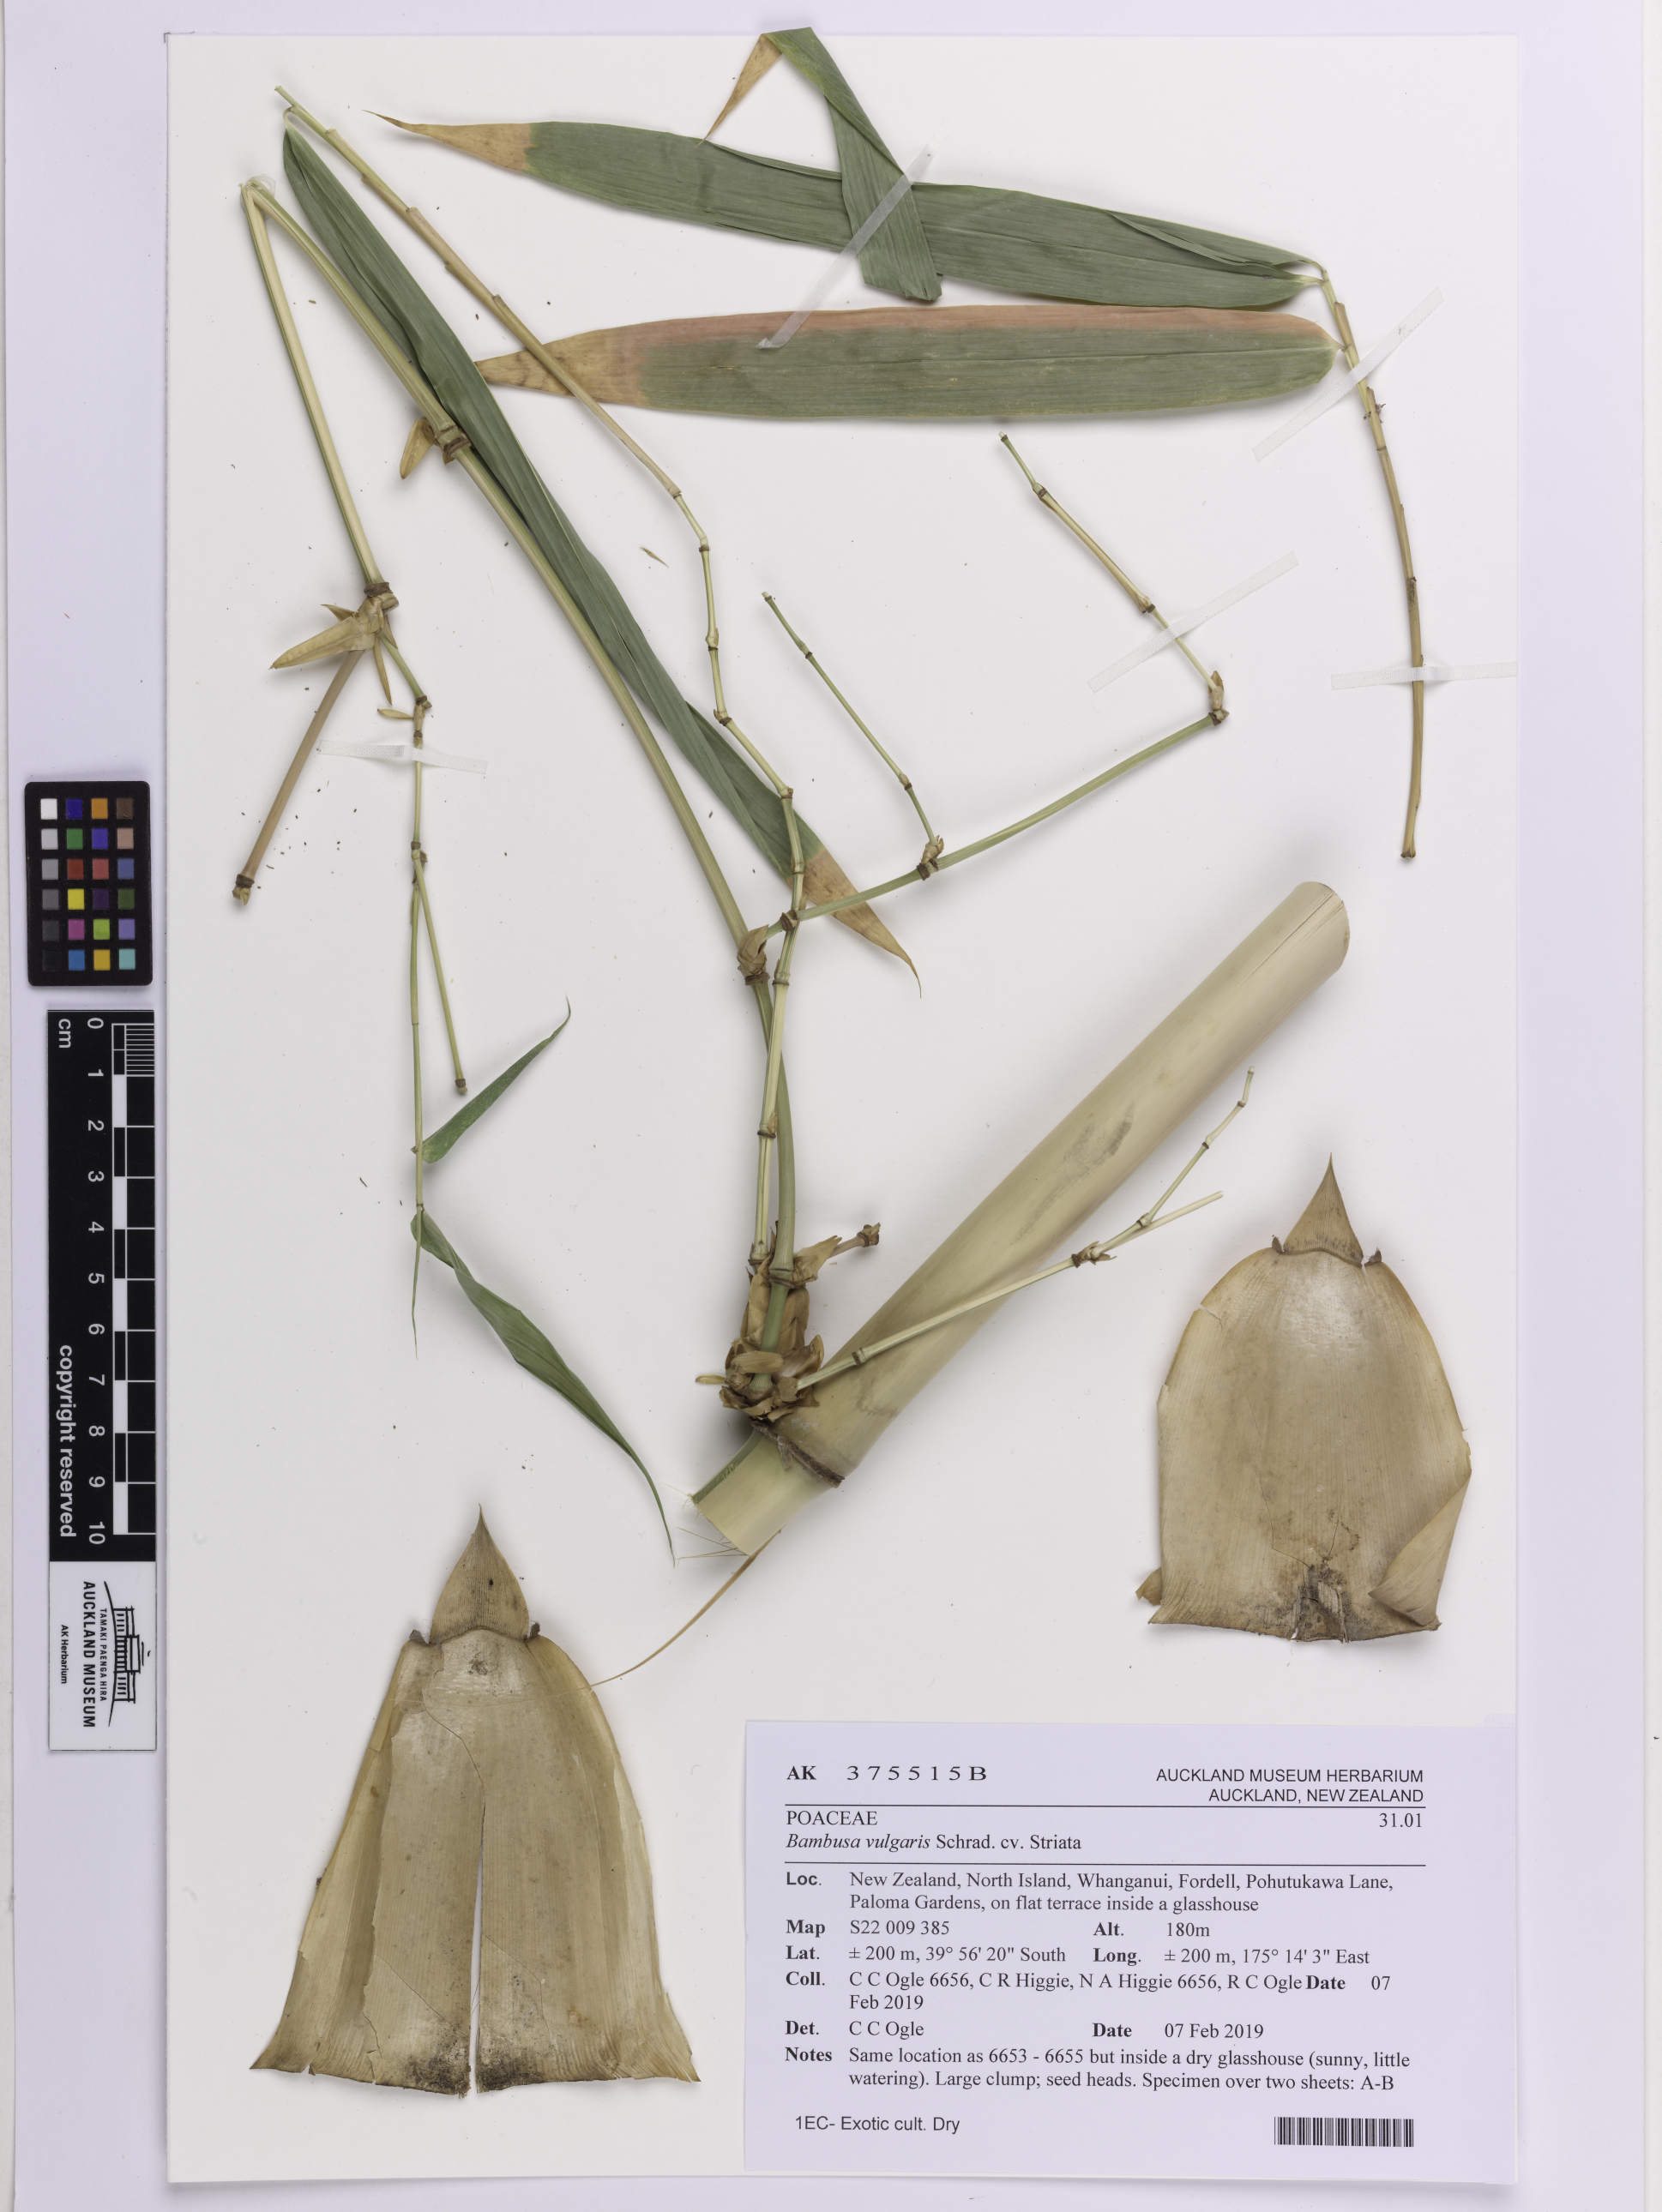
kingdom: Plantae
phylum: Tracheophyta
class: Liliopsida
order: Poales
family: Poaceae
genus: Bambusa
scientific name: Bambusa vulgaris
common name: Common bamboo
